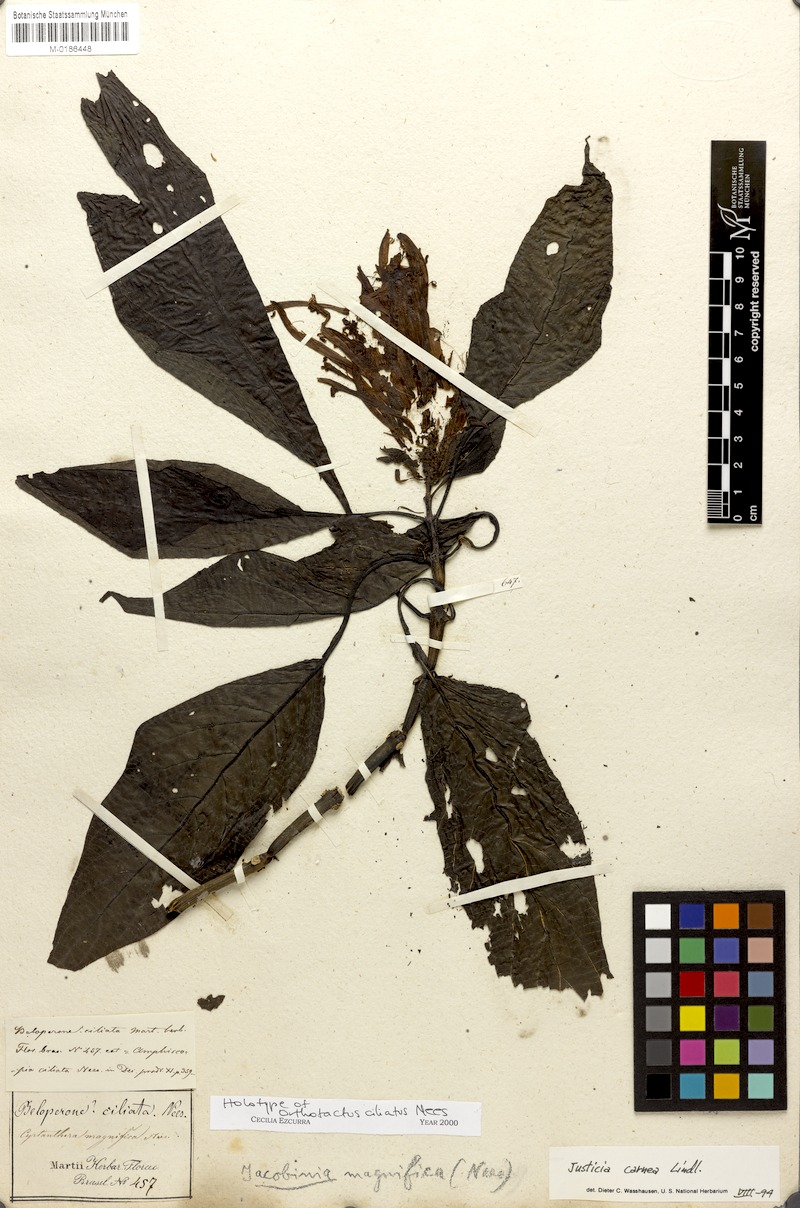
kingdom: Plantae
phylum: Tracheophyta
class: Magnoliopsida
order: Lamiales
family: Acanthaceae
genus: Justicia
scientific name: Justicia carnea
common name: Brazilian-plume
